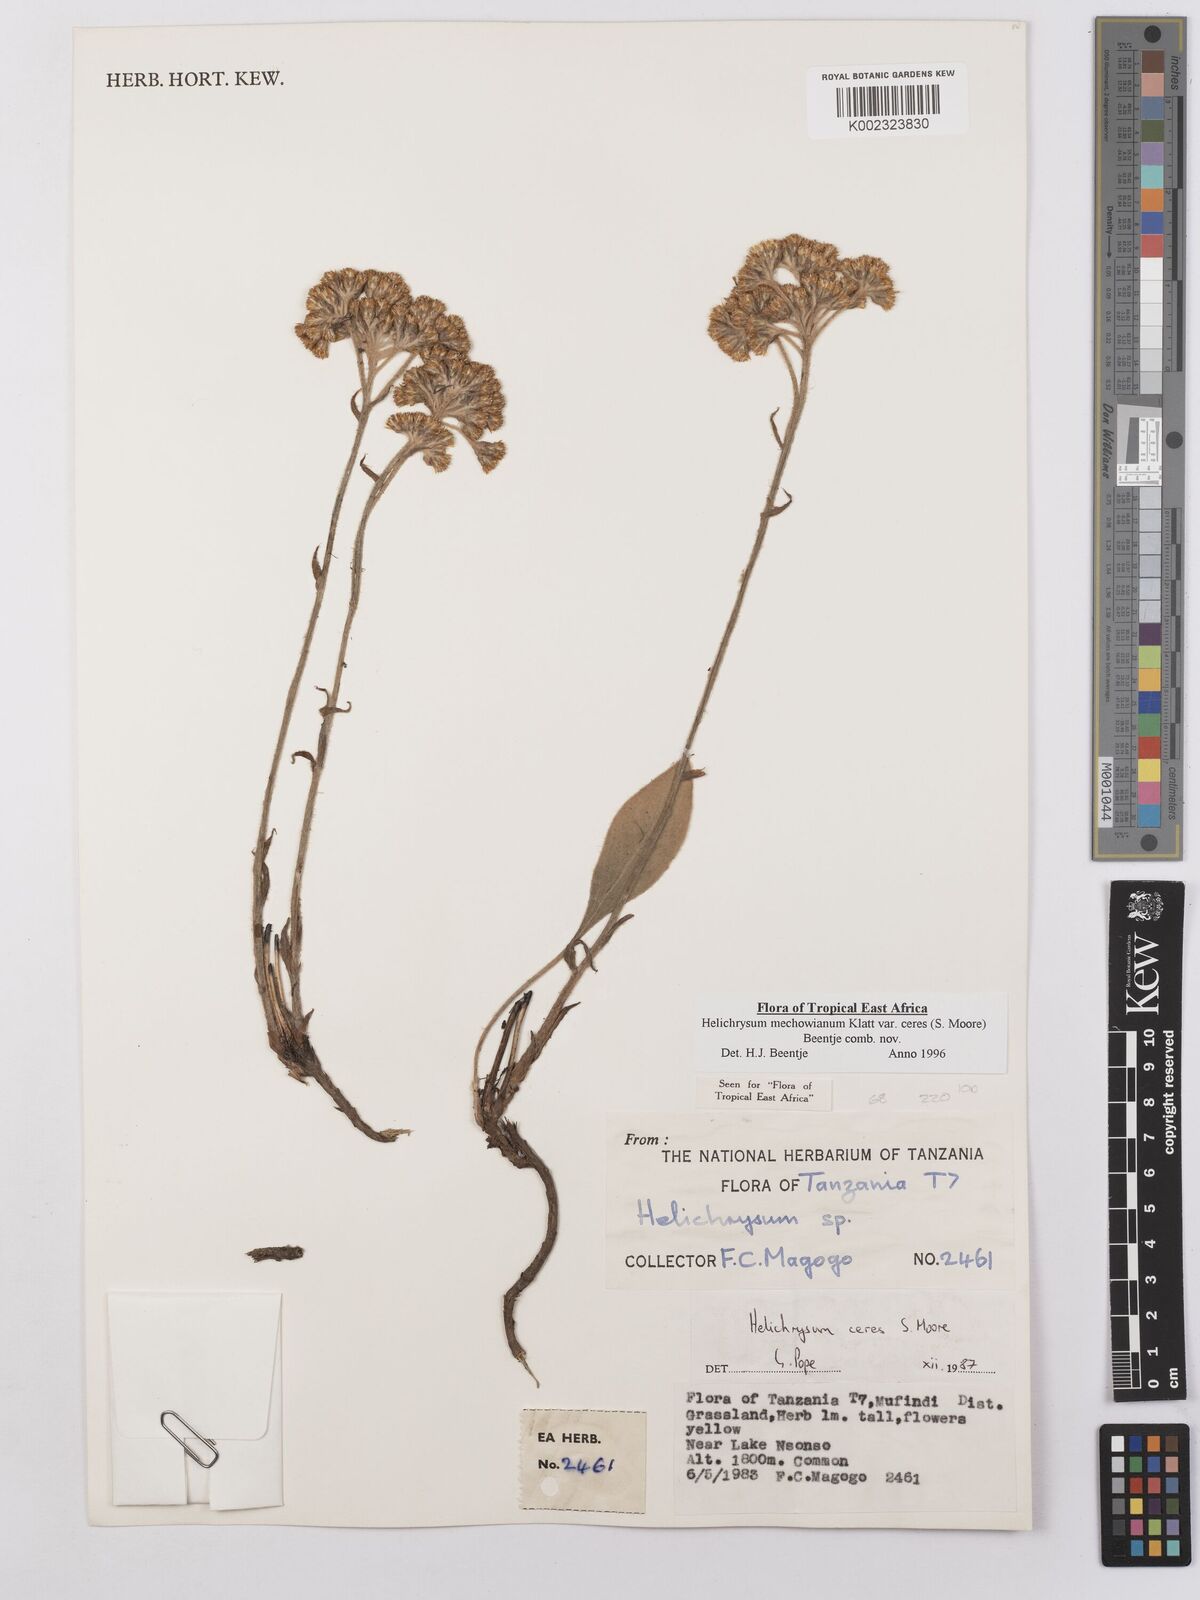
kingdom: Plantae
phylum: Tracheophyta
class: Magnoliopsida
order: Asterales
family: Asteraceae
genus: Helichrysum
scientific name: Helichrysum mechowianum
